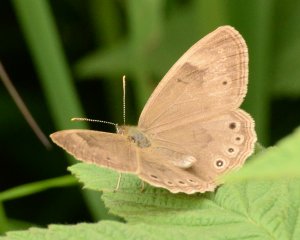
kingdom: Animalia
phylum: Arthropoda
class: Insecta
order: Lepidoptera
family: Nymphalidae
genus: Lethe
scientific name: Lethe eurydice
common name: Eyed Brown
